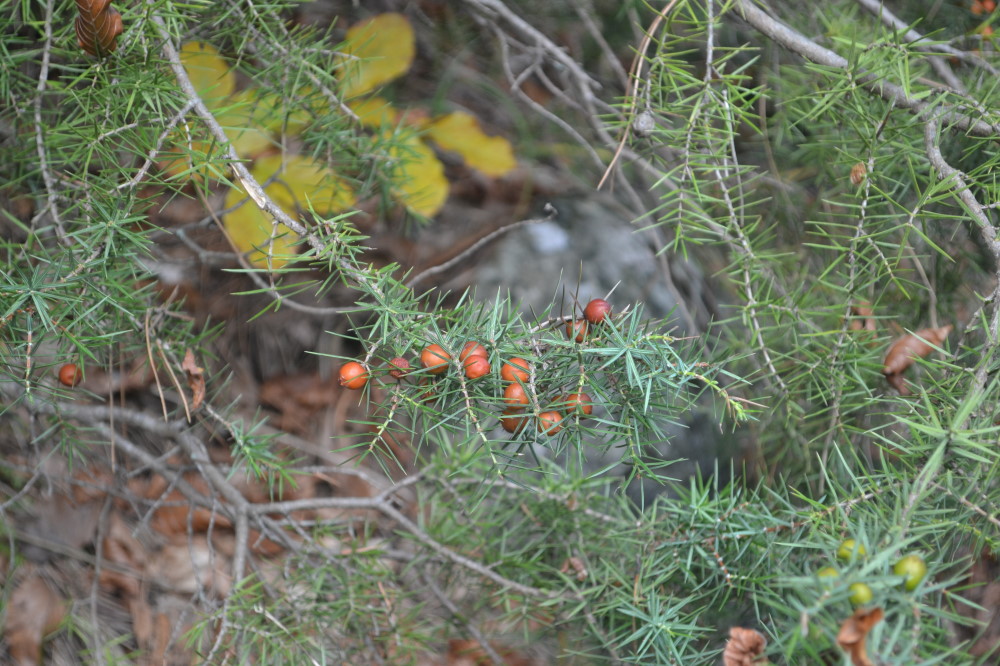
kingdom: Plantae
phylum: Tracheophyta
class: Pinopsida
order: Pinales
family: Cupressaceae
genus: Juniperus
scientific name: Juniperus oxycedrus
